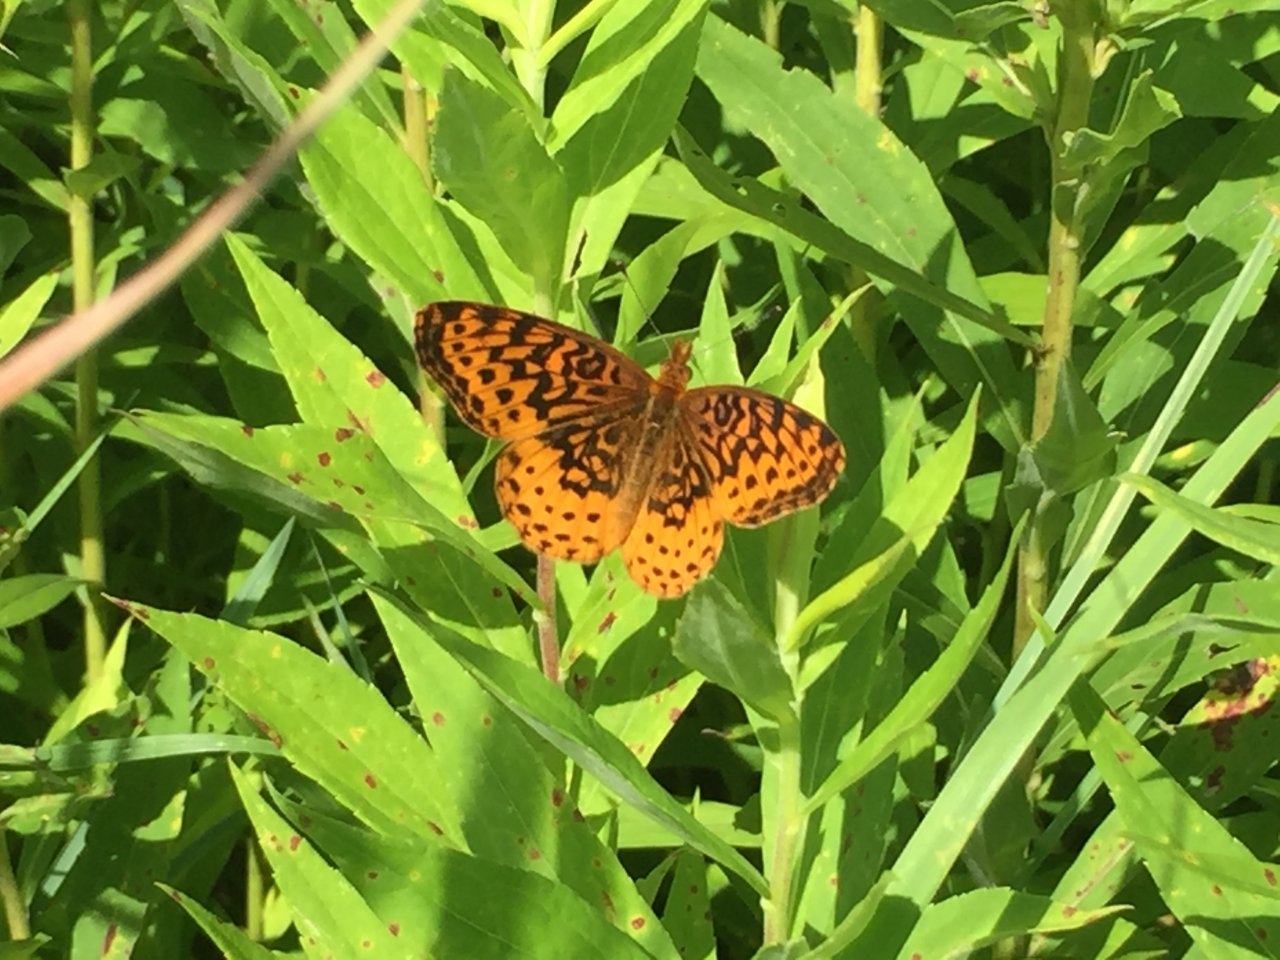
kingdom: Animalia
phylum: Arthropoda
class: Insecta
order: Lepidoptera
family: Nymphalidae
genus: Clossiana
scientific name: Clossiana toddi
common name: Meadow Fritillary
